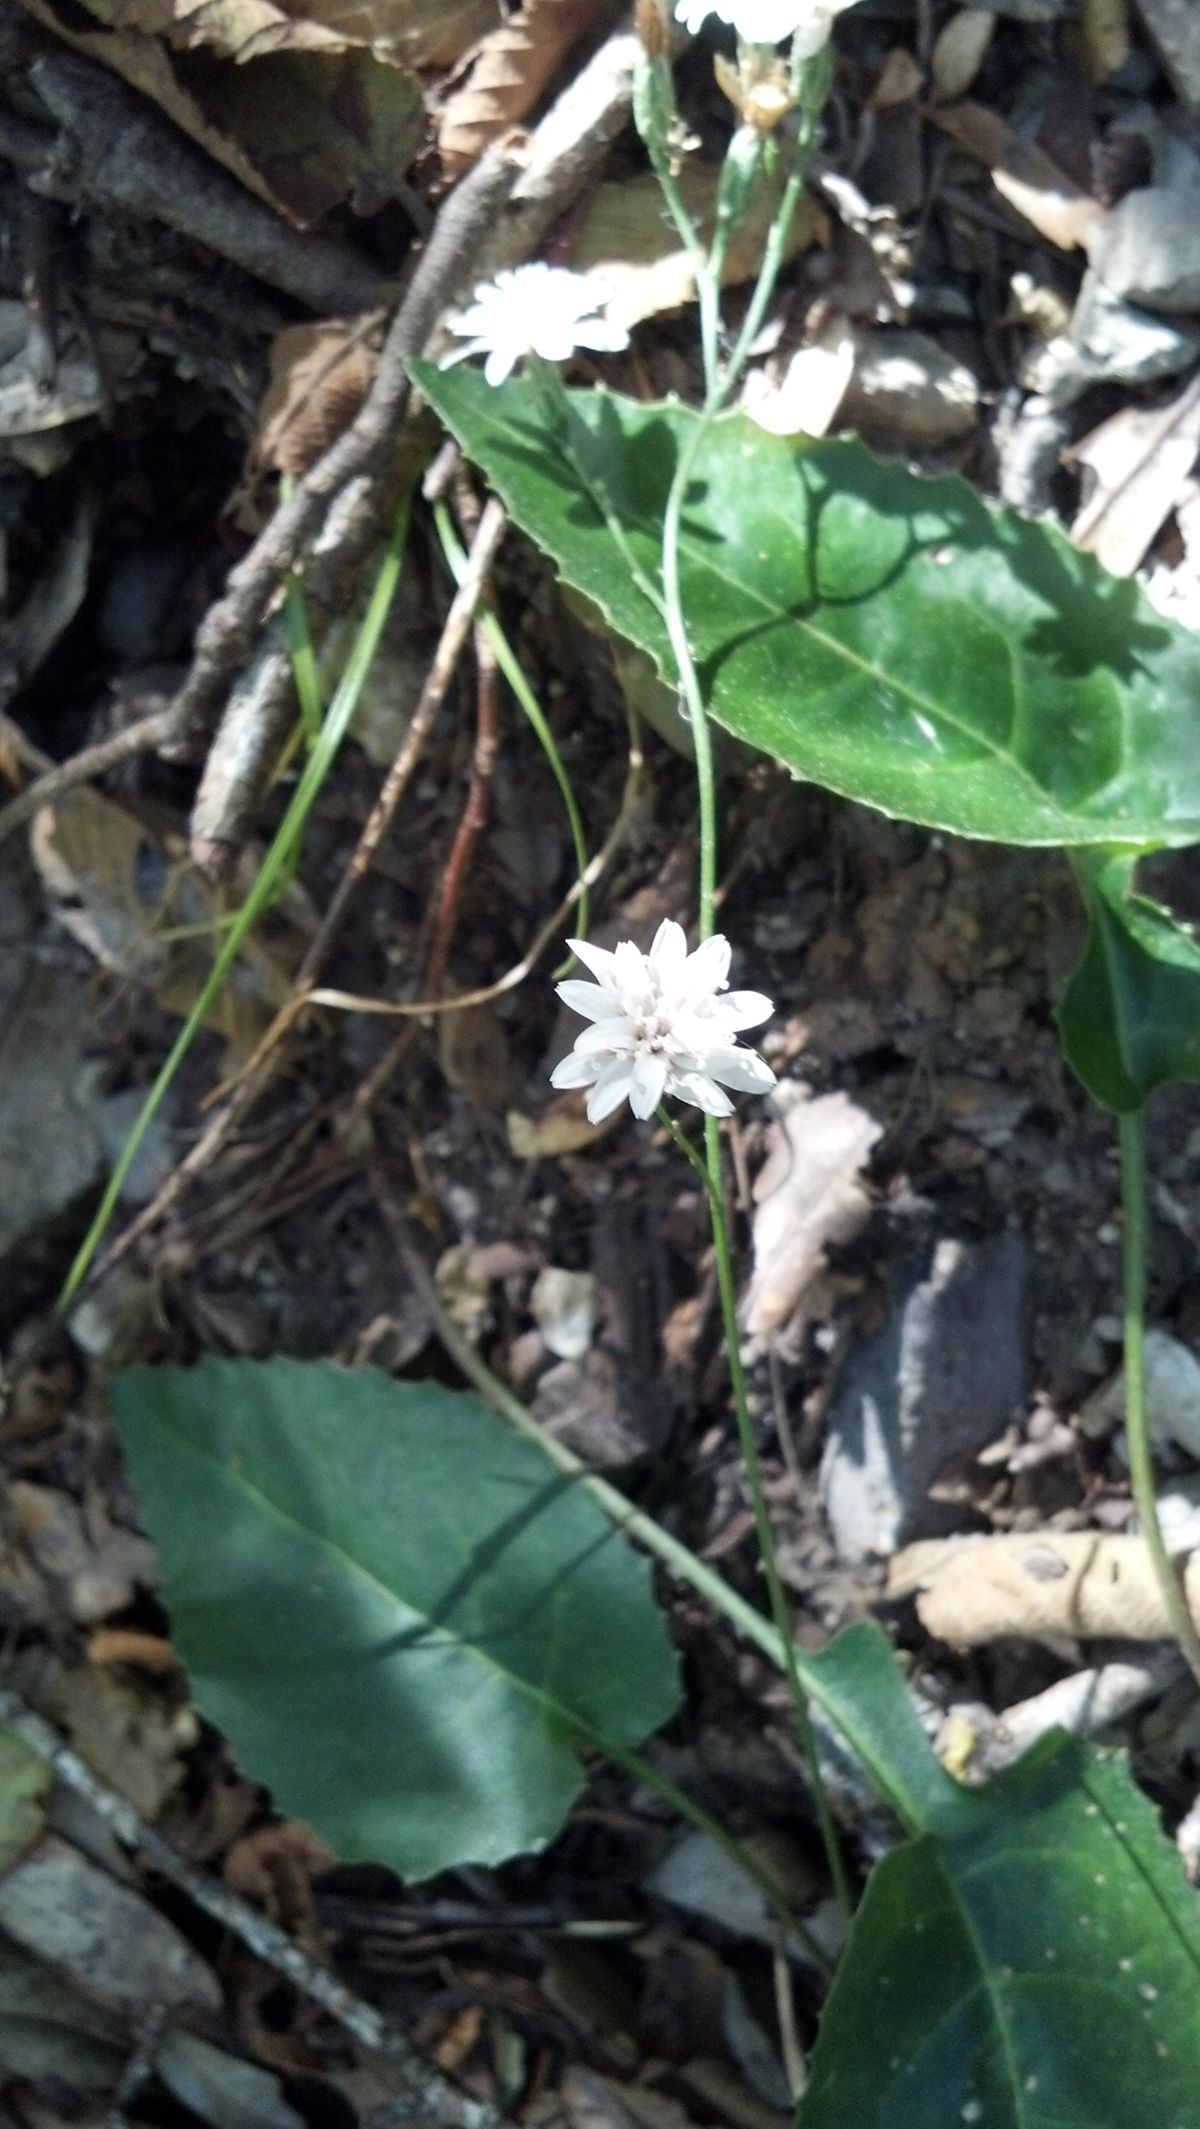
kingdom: Plantae
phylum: Tracheophyta
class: Magnoliopsida
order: Asterales
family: Asteraceae
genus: Acourtia
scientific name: Acourtia nudicaulis
